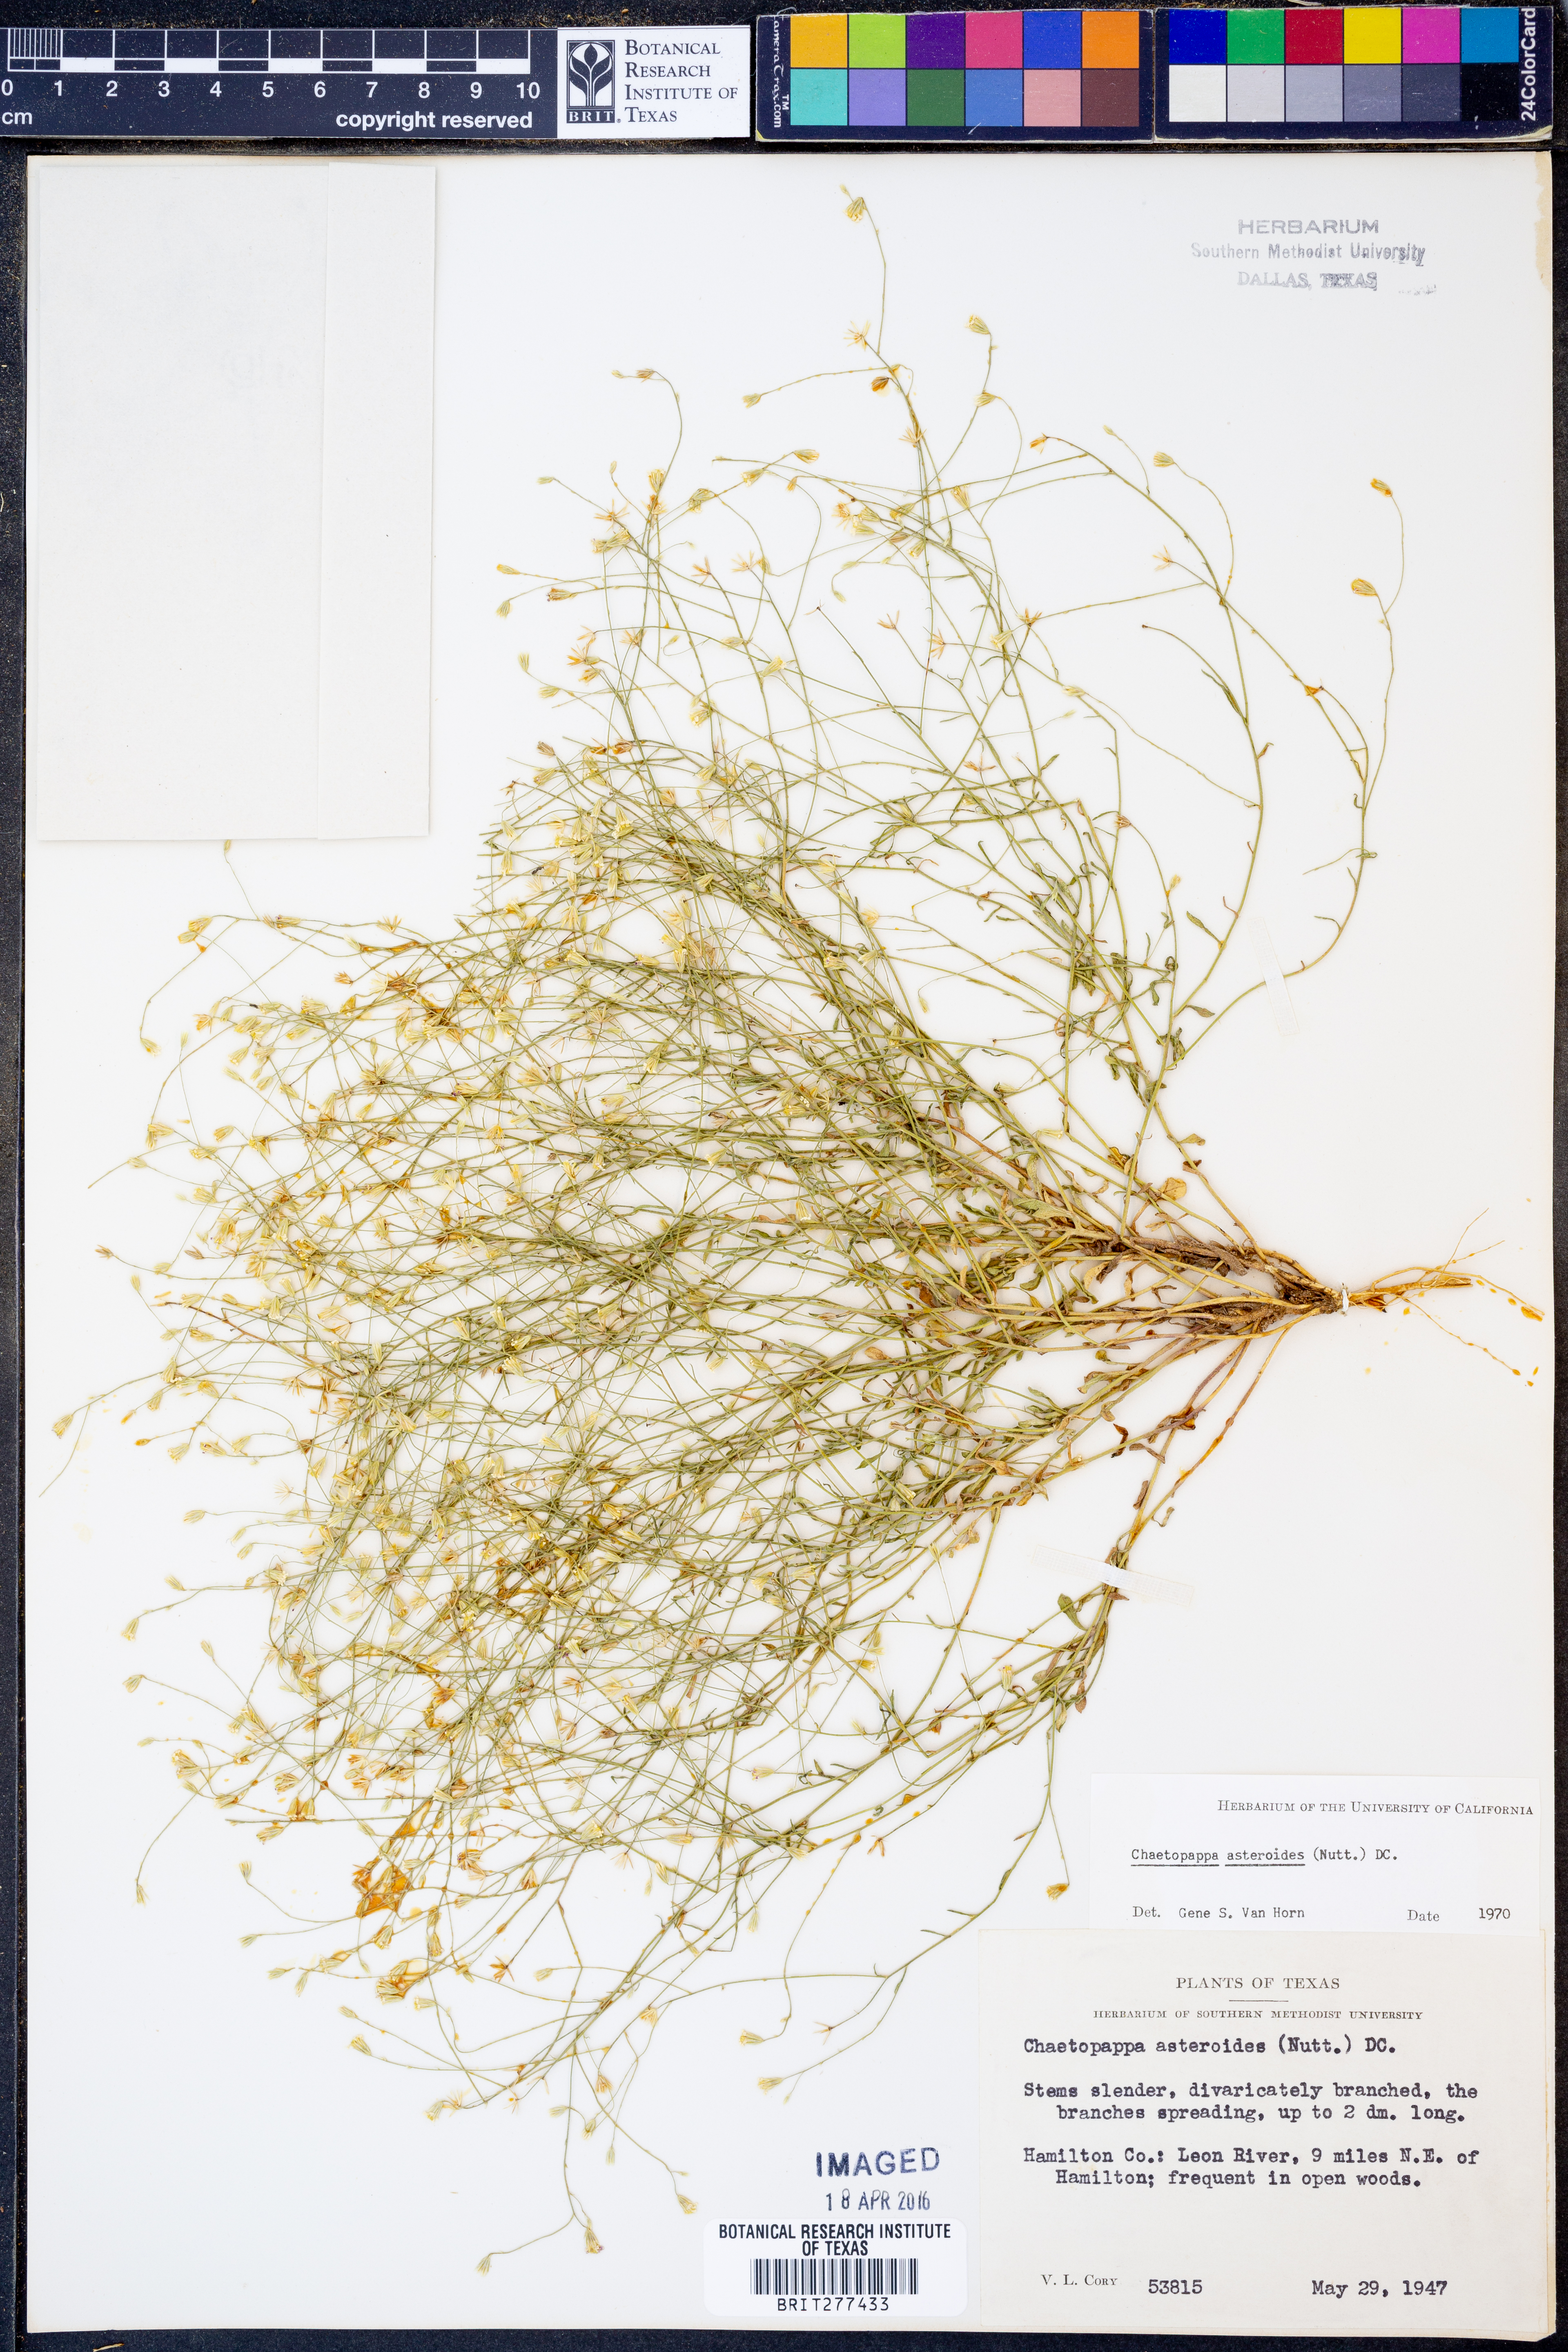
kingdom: Plantae
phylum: Tracheophyta
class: Magnoliopsida
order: Asterales
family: Asteraceae
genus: Chaetopappa
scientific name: Chaetopappa asteroides
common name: Tiny lazy daisy
